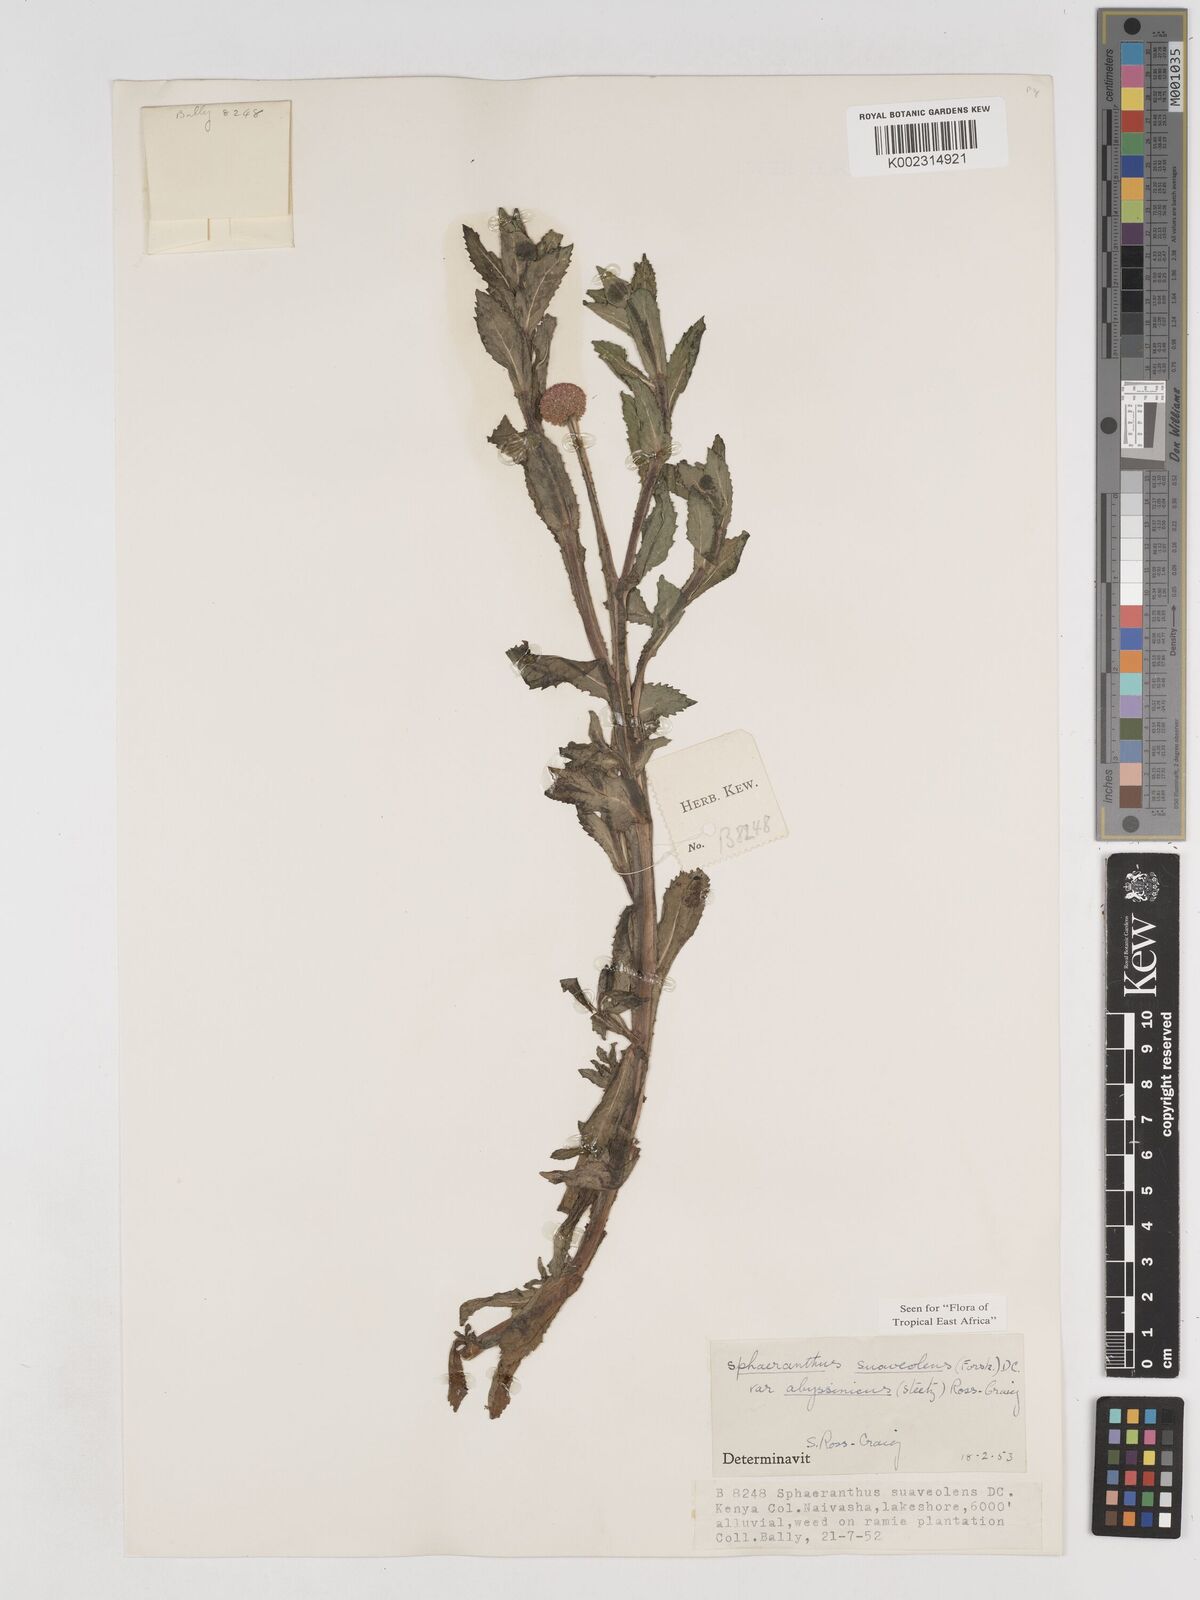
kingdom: Plantae
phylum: Tracheophyta
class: Magnoliopsida
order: Asterales
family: Asteraceae
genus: Sphaeranthus
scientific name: Sphaeranthus suaveolens
